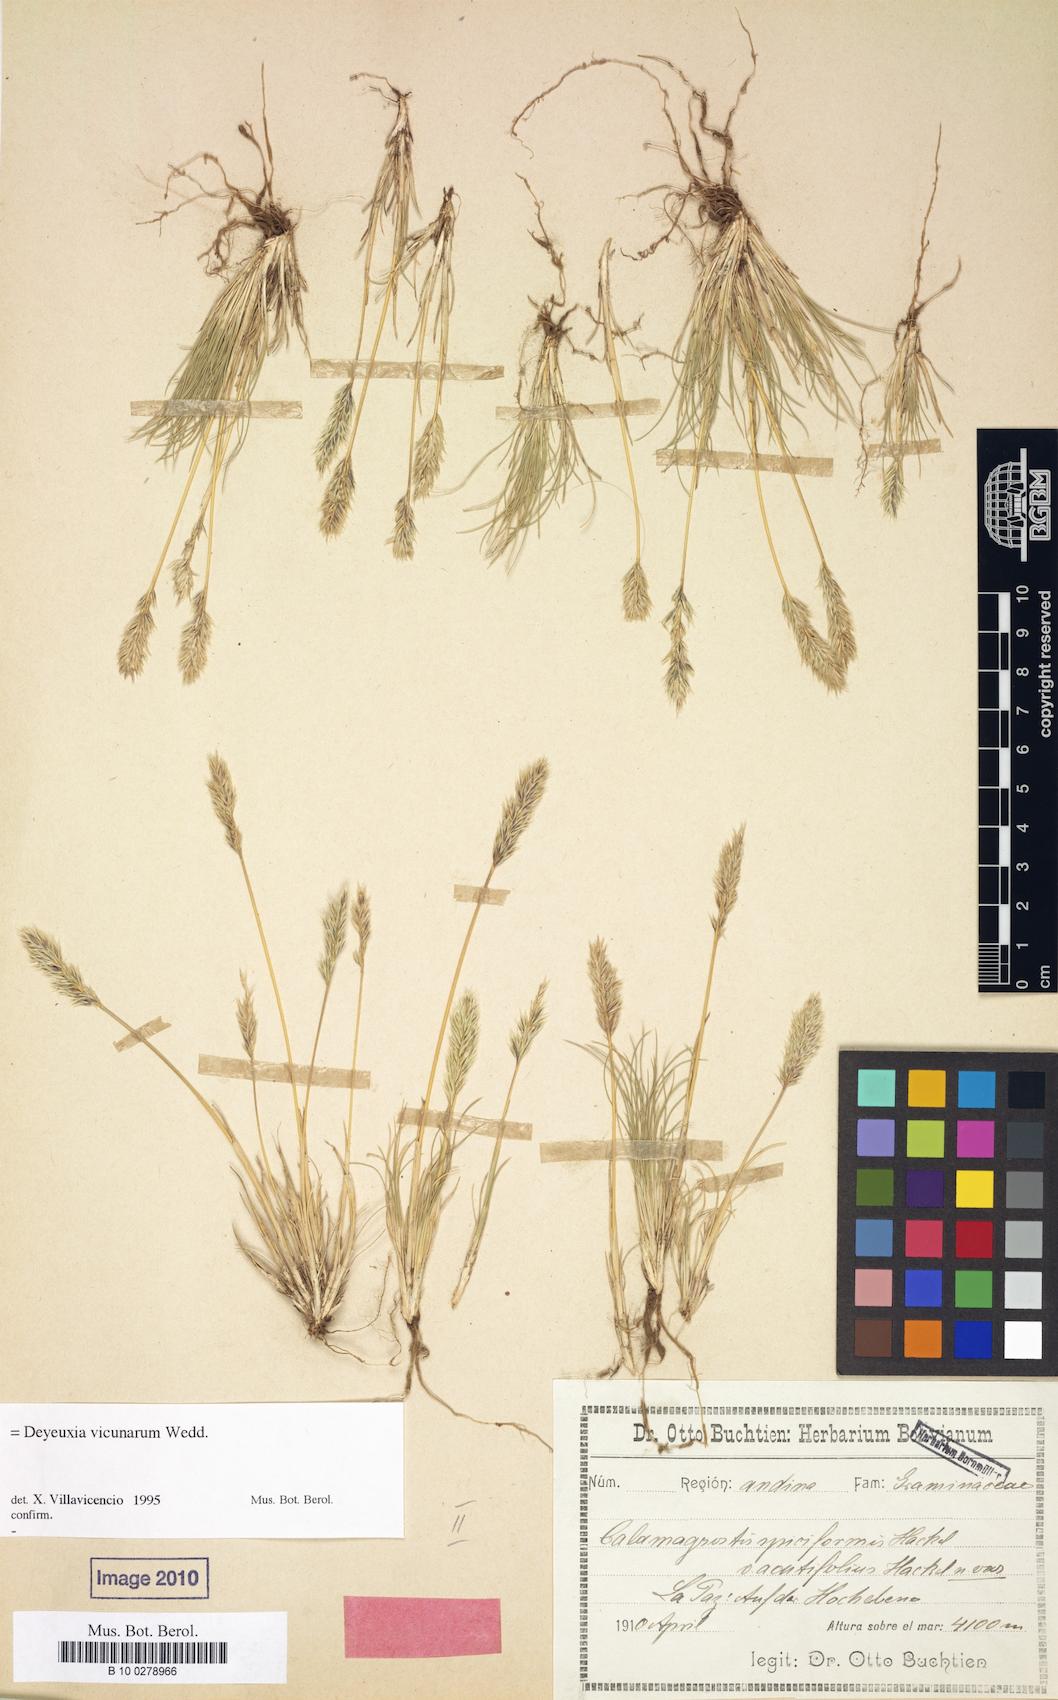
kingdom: Plantae
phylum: Tracheophyta
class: Liliopsida
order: Poales
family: Poaceae
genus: Cinnagrostis
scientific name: Cinnagrostis vicunarum
